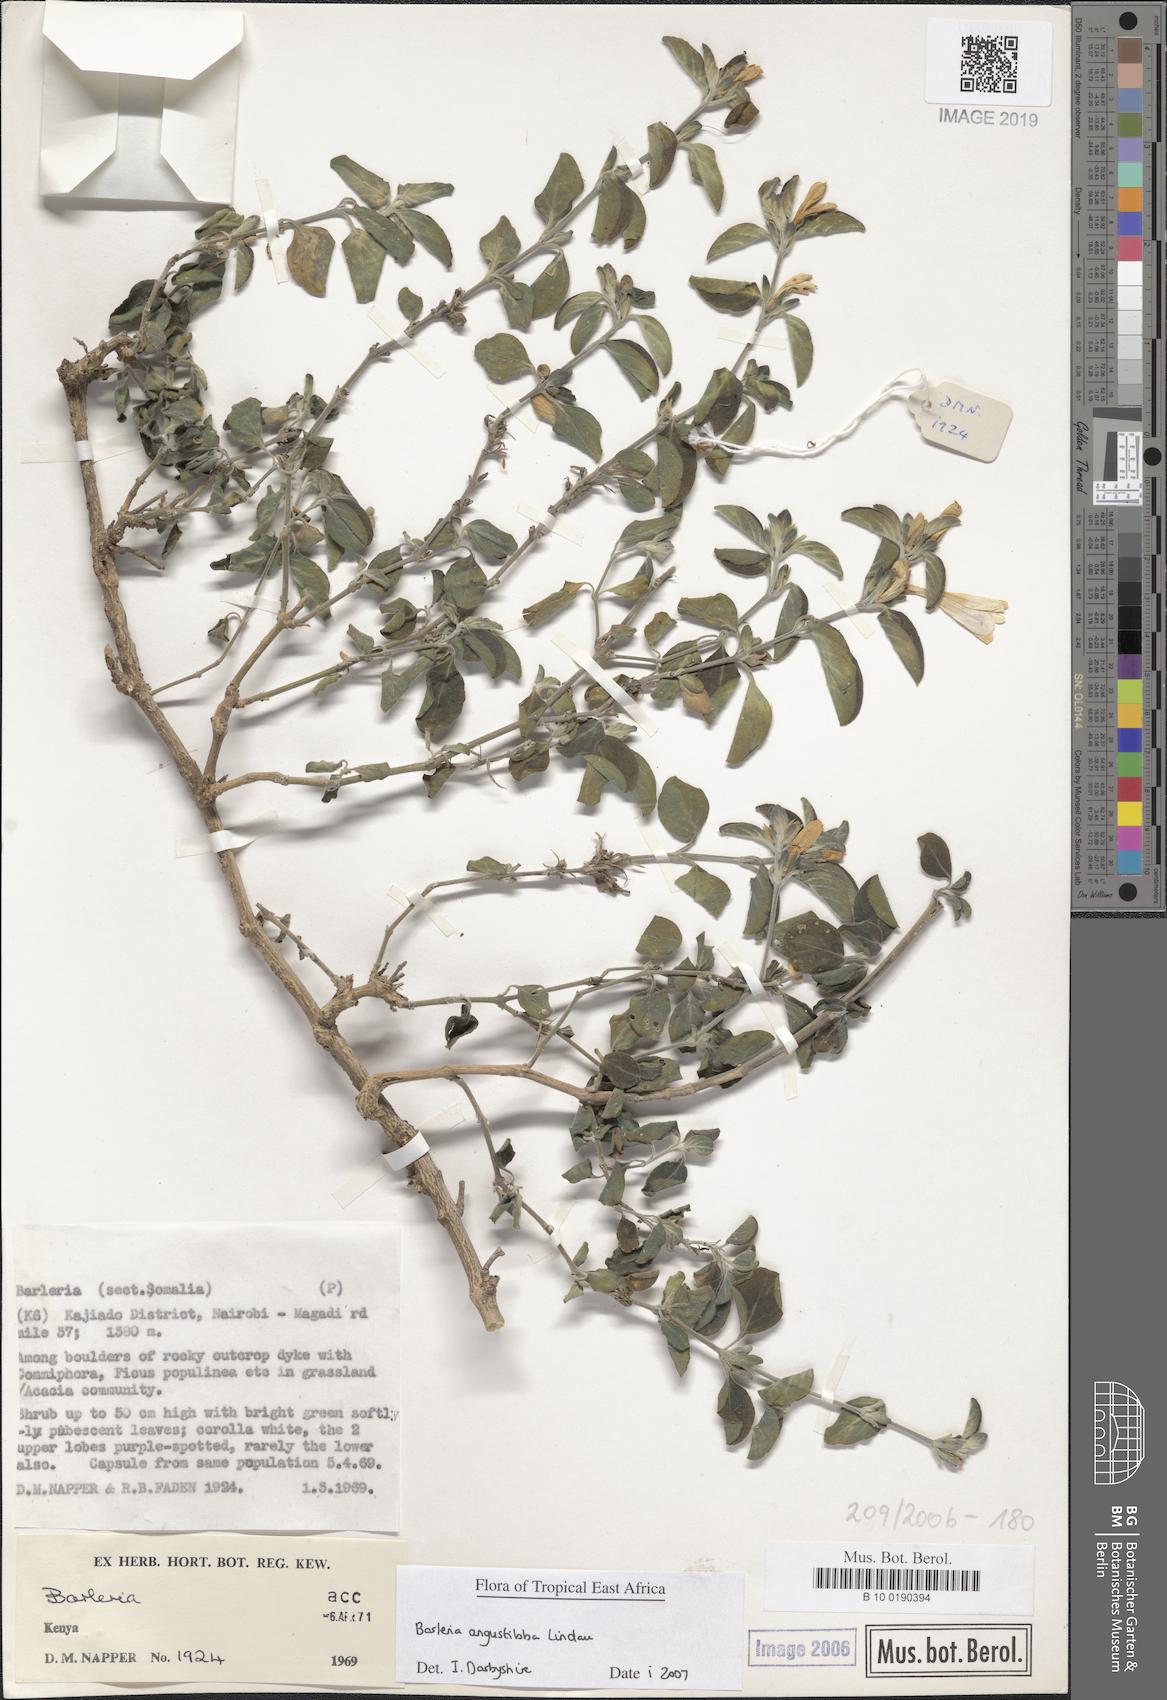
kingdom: Plantae
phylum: Tracheophyta
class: Magnoliopsida
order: Lamiales
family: Acanthaceae
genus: Barleria
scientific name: Barleria
